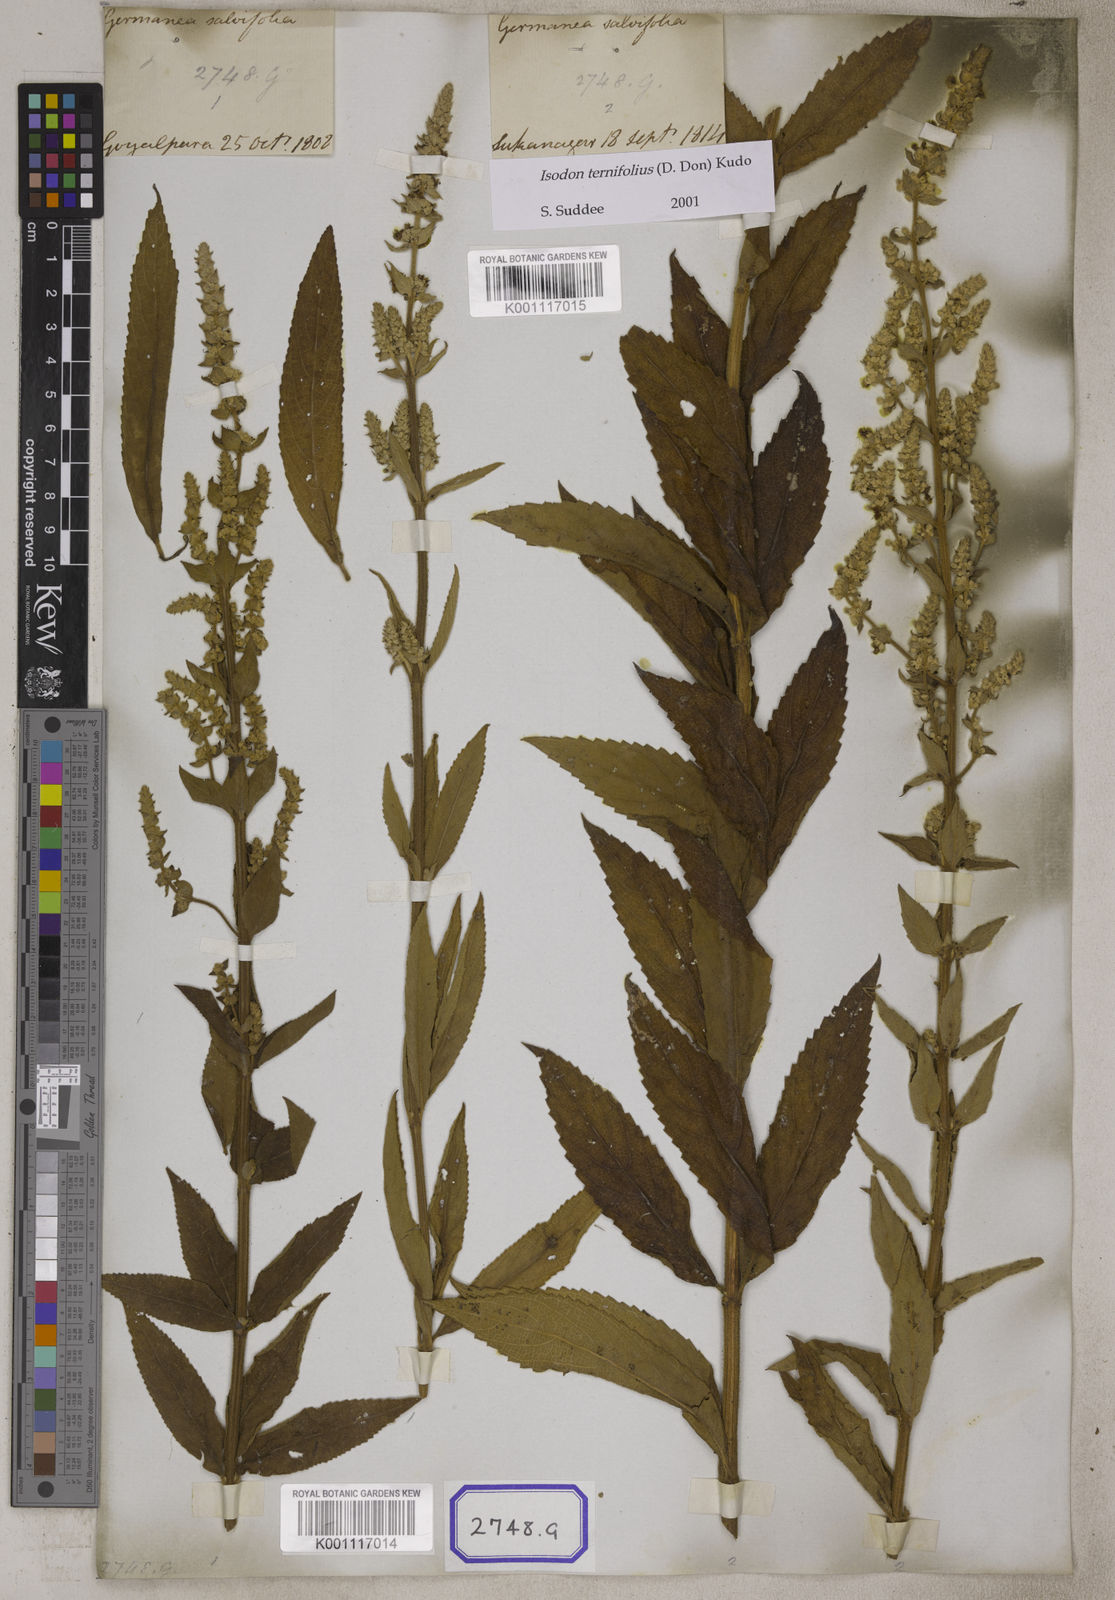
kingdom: Plantae
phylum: Tracheophyta
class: Magnoliopsida
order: Lamiales
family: Lamiaceae
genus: Isodon
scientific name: Isodon ternifolius
